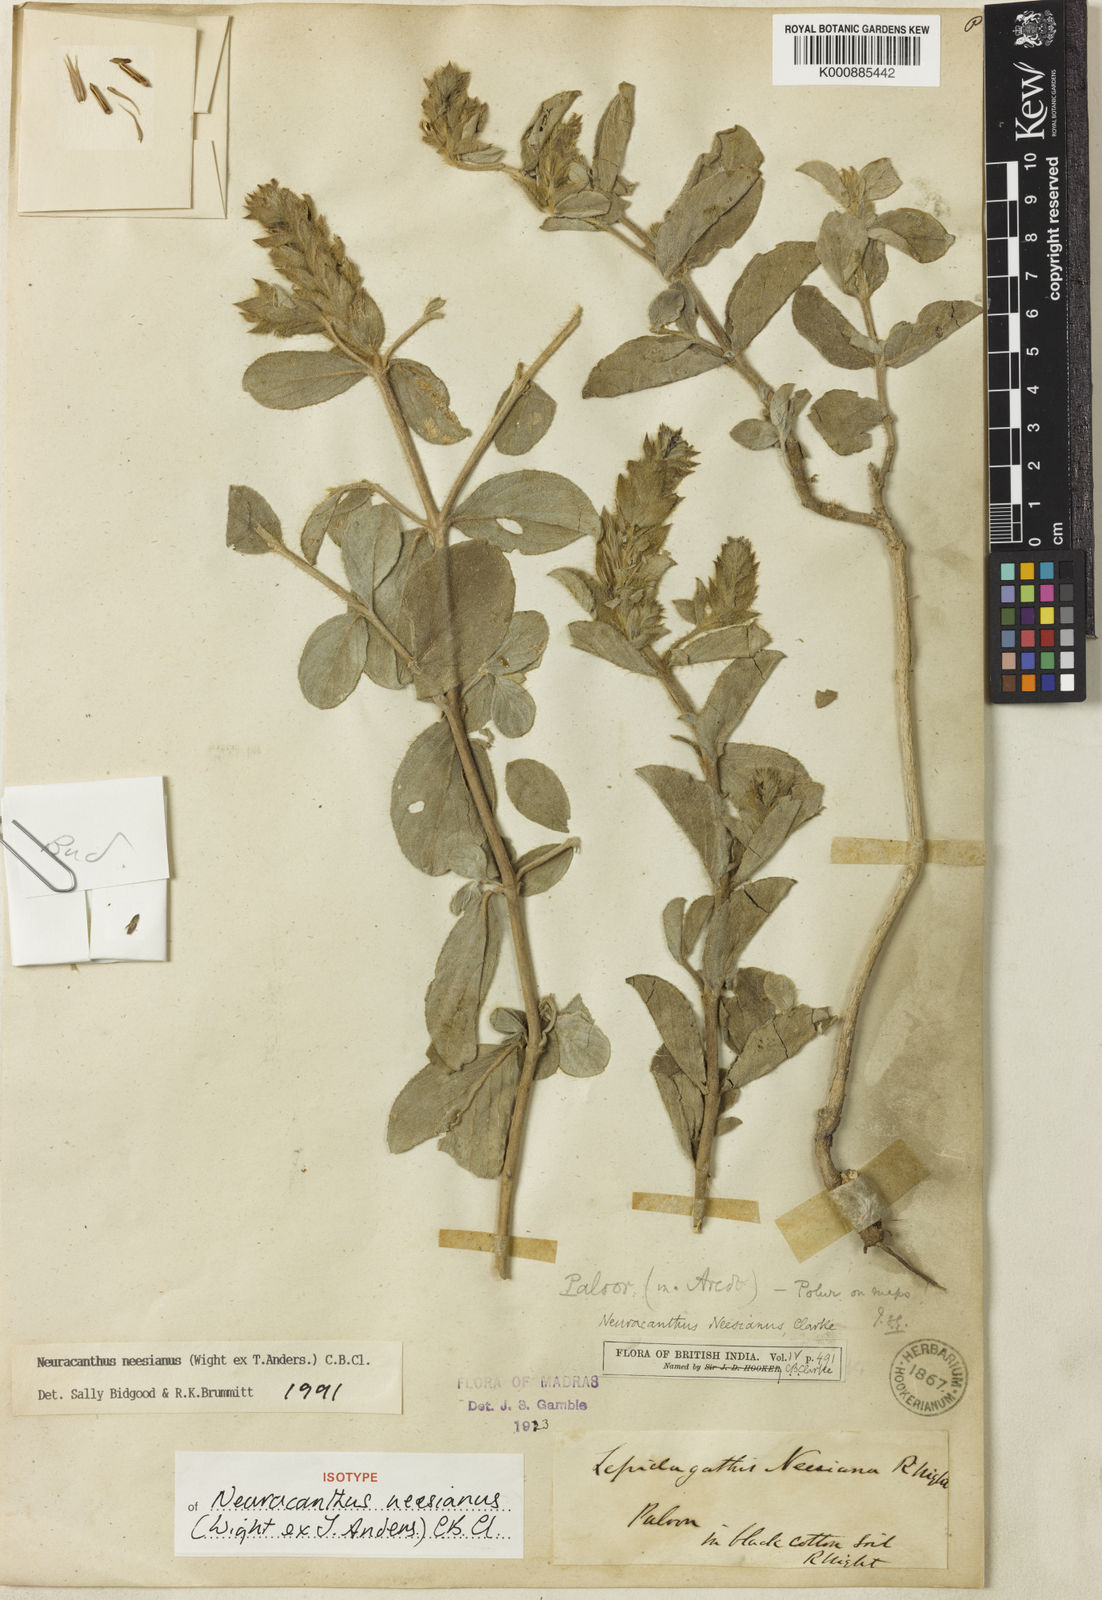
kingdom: Plantae
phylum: Tracheophyta
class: Magnoliopsida
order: Lamiales
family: Acanthaceae
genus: Neuracanthus
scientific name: Neuracanthus neesianus
